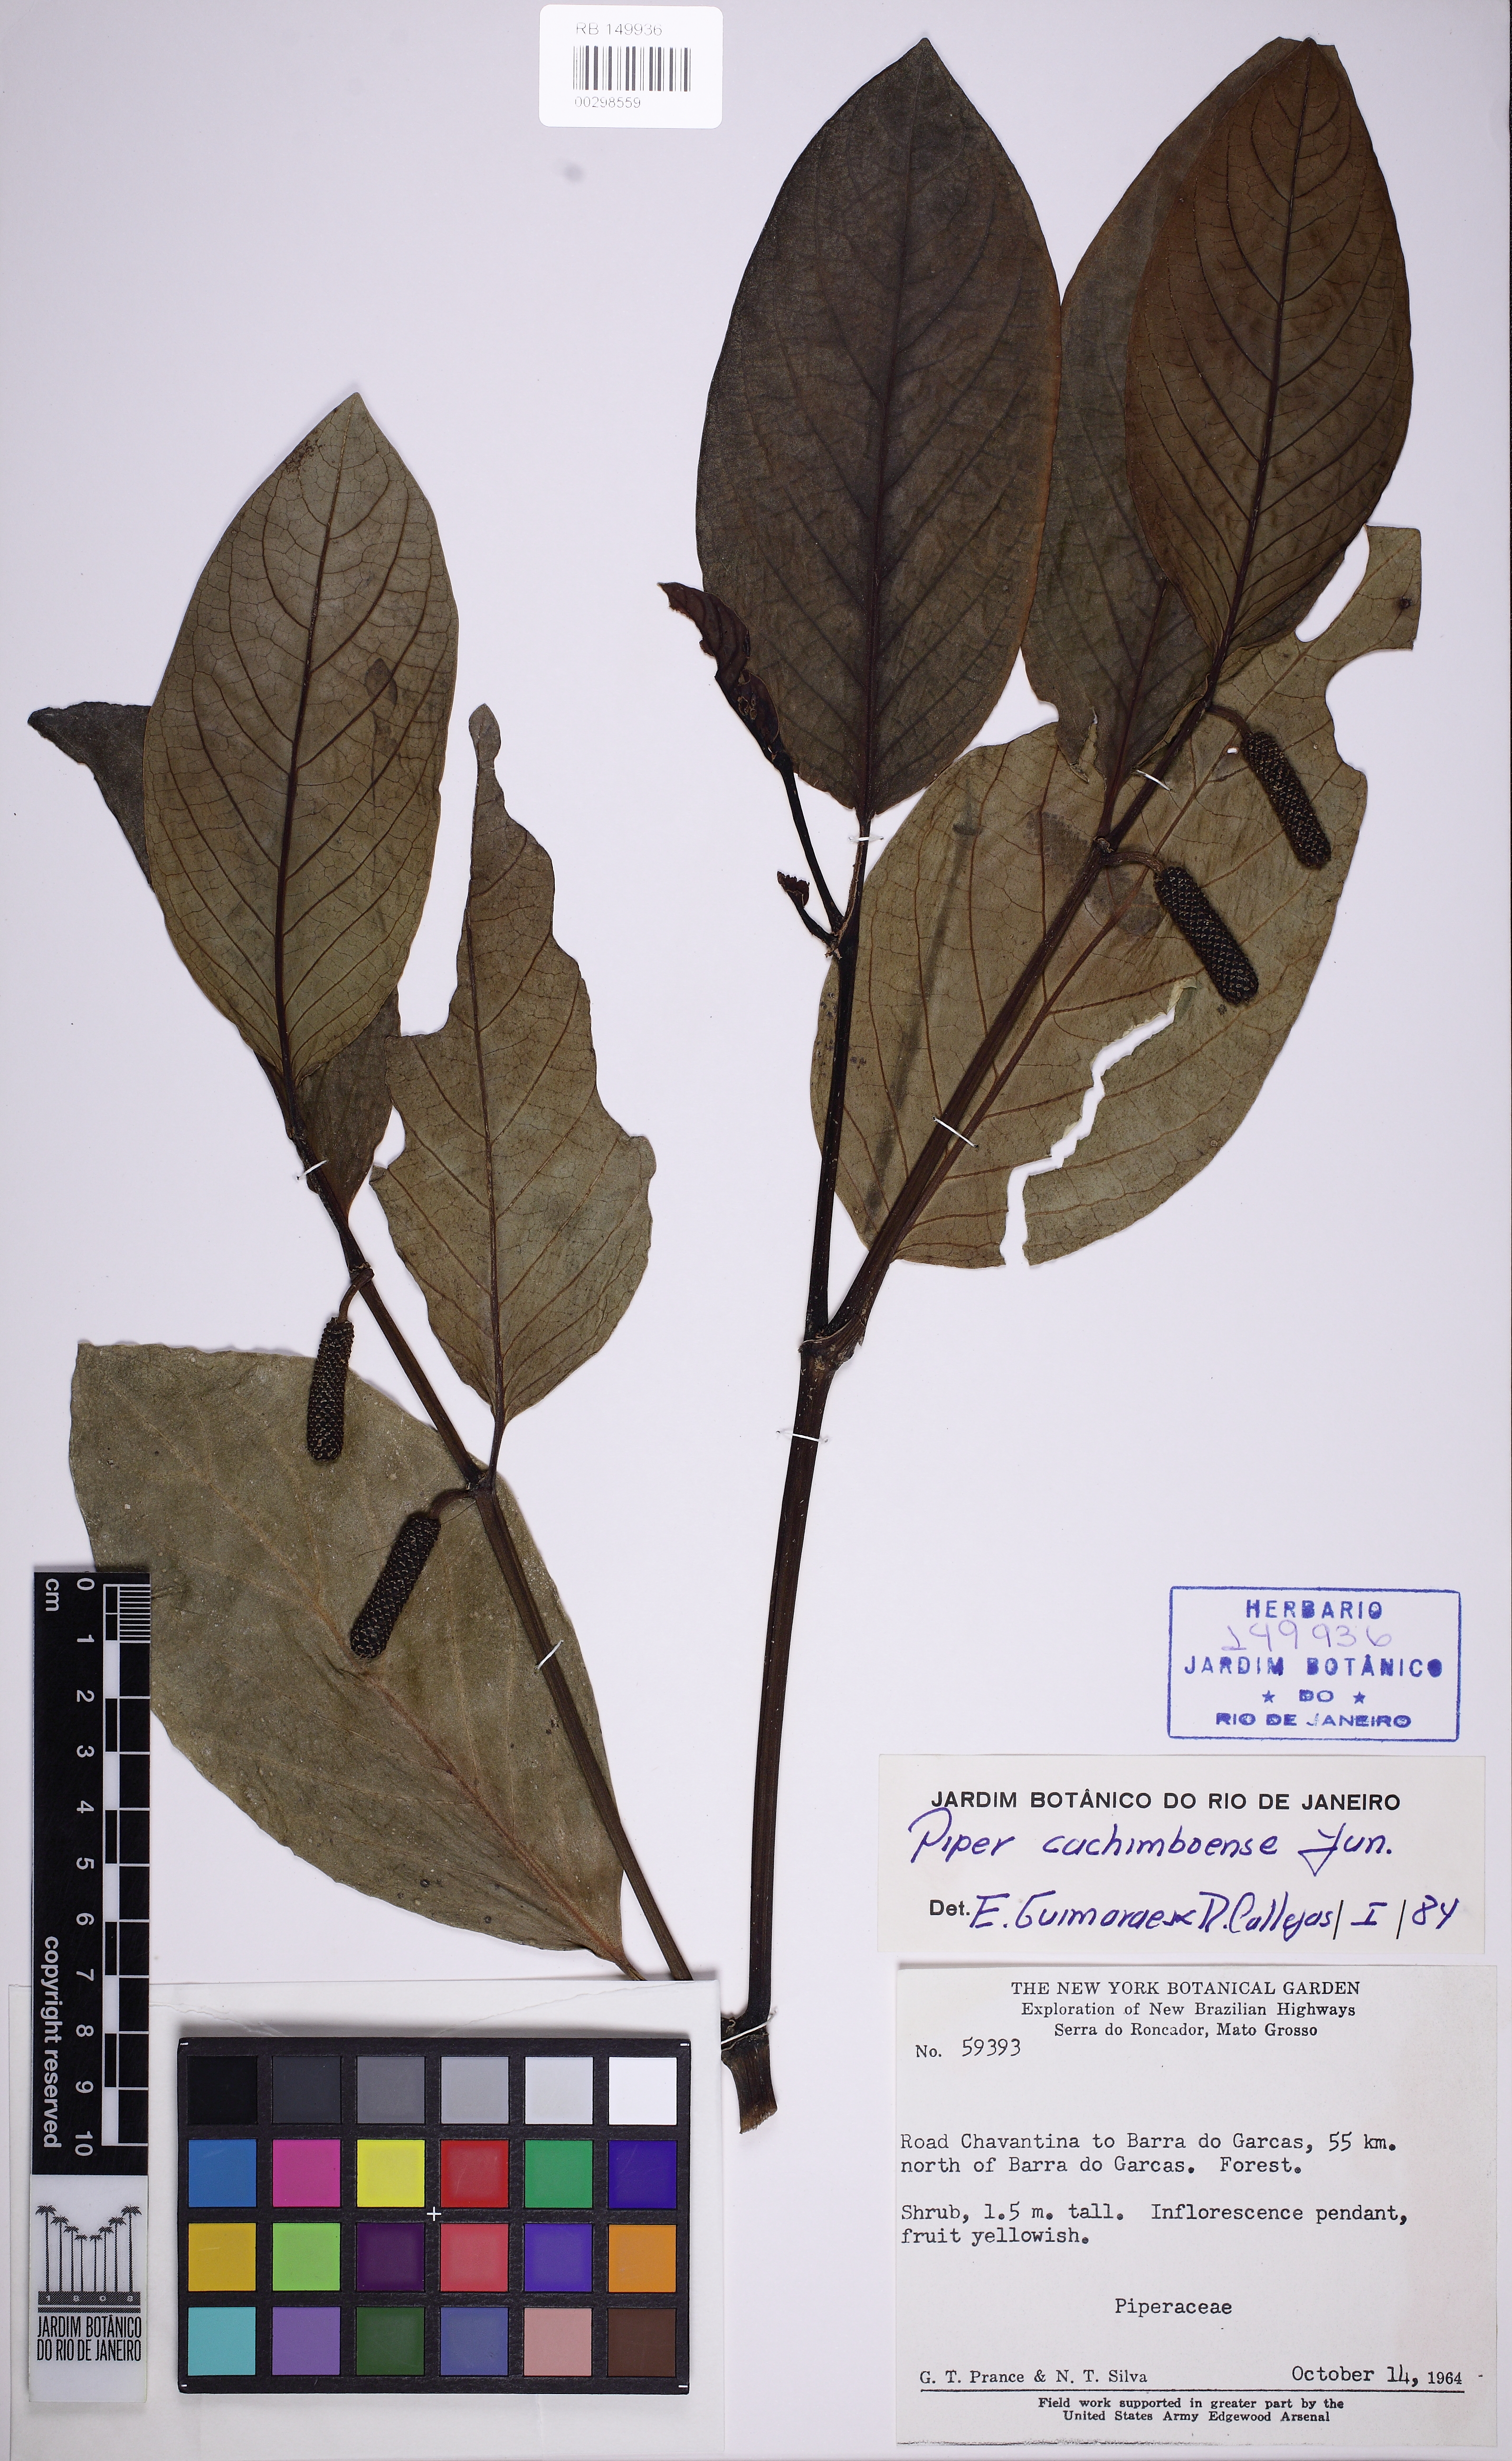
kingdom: Plantae
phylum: Tracheophyta
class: Magnoliopsida
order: Piperales
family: Piperaceae
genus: Piper
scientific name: Piper macrorhynchon
